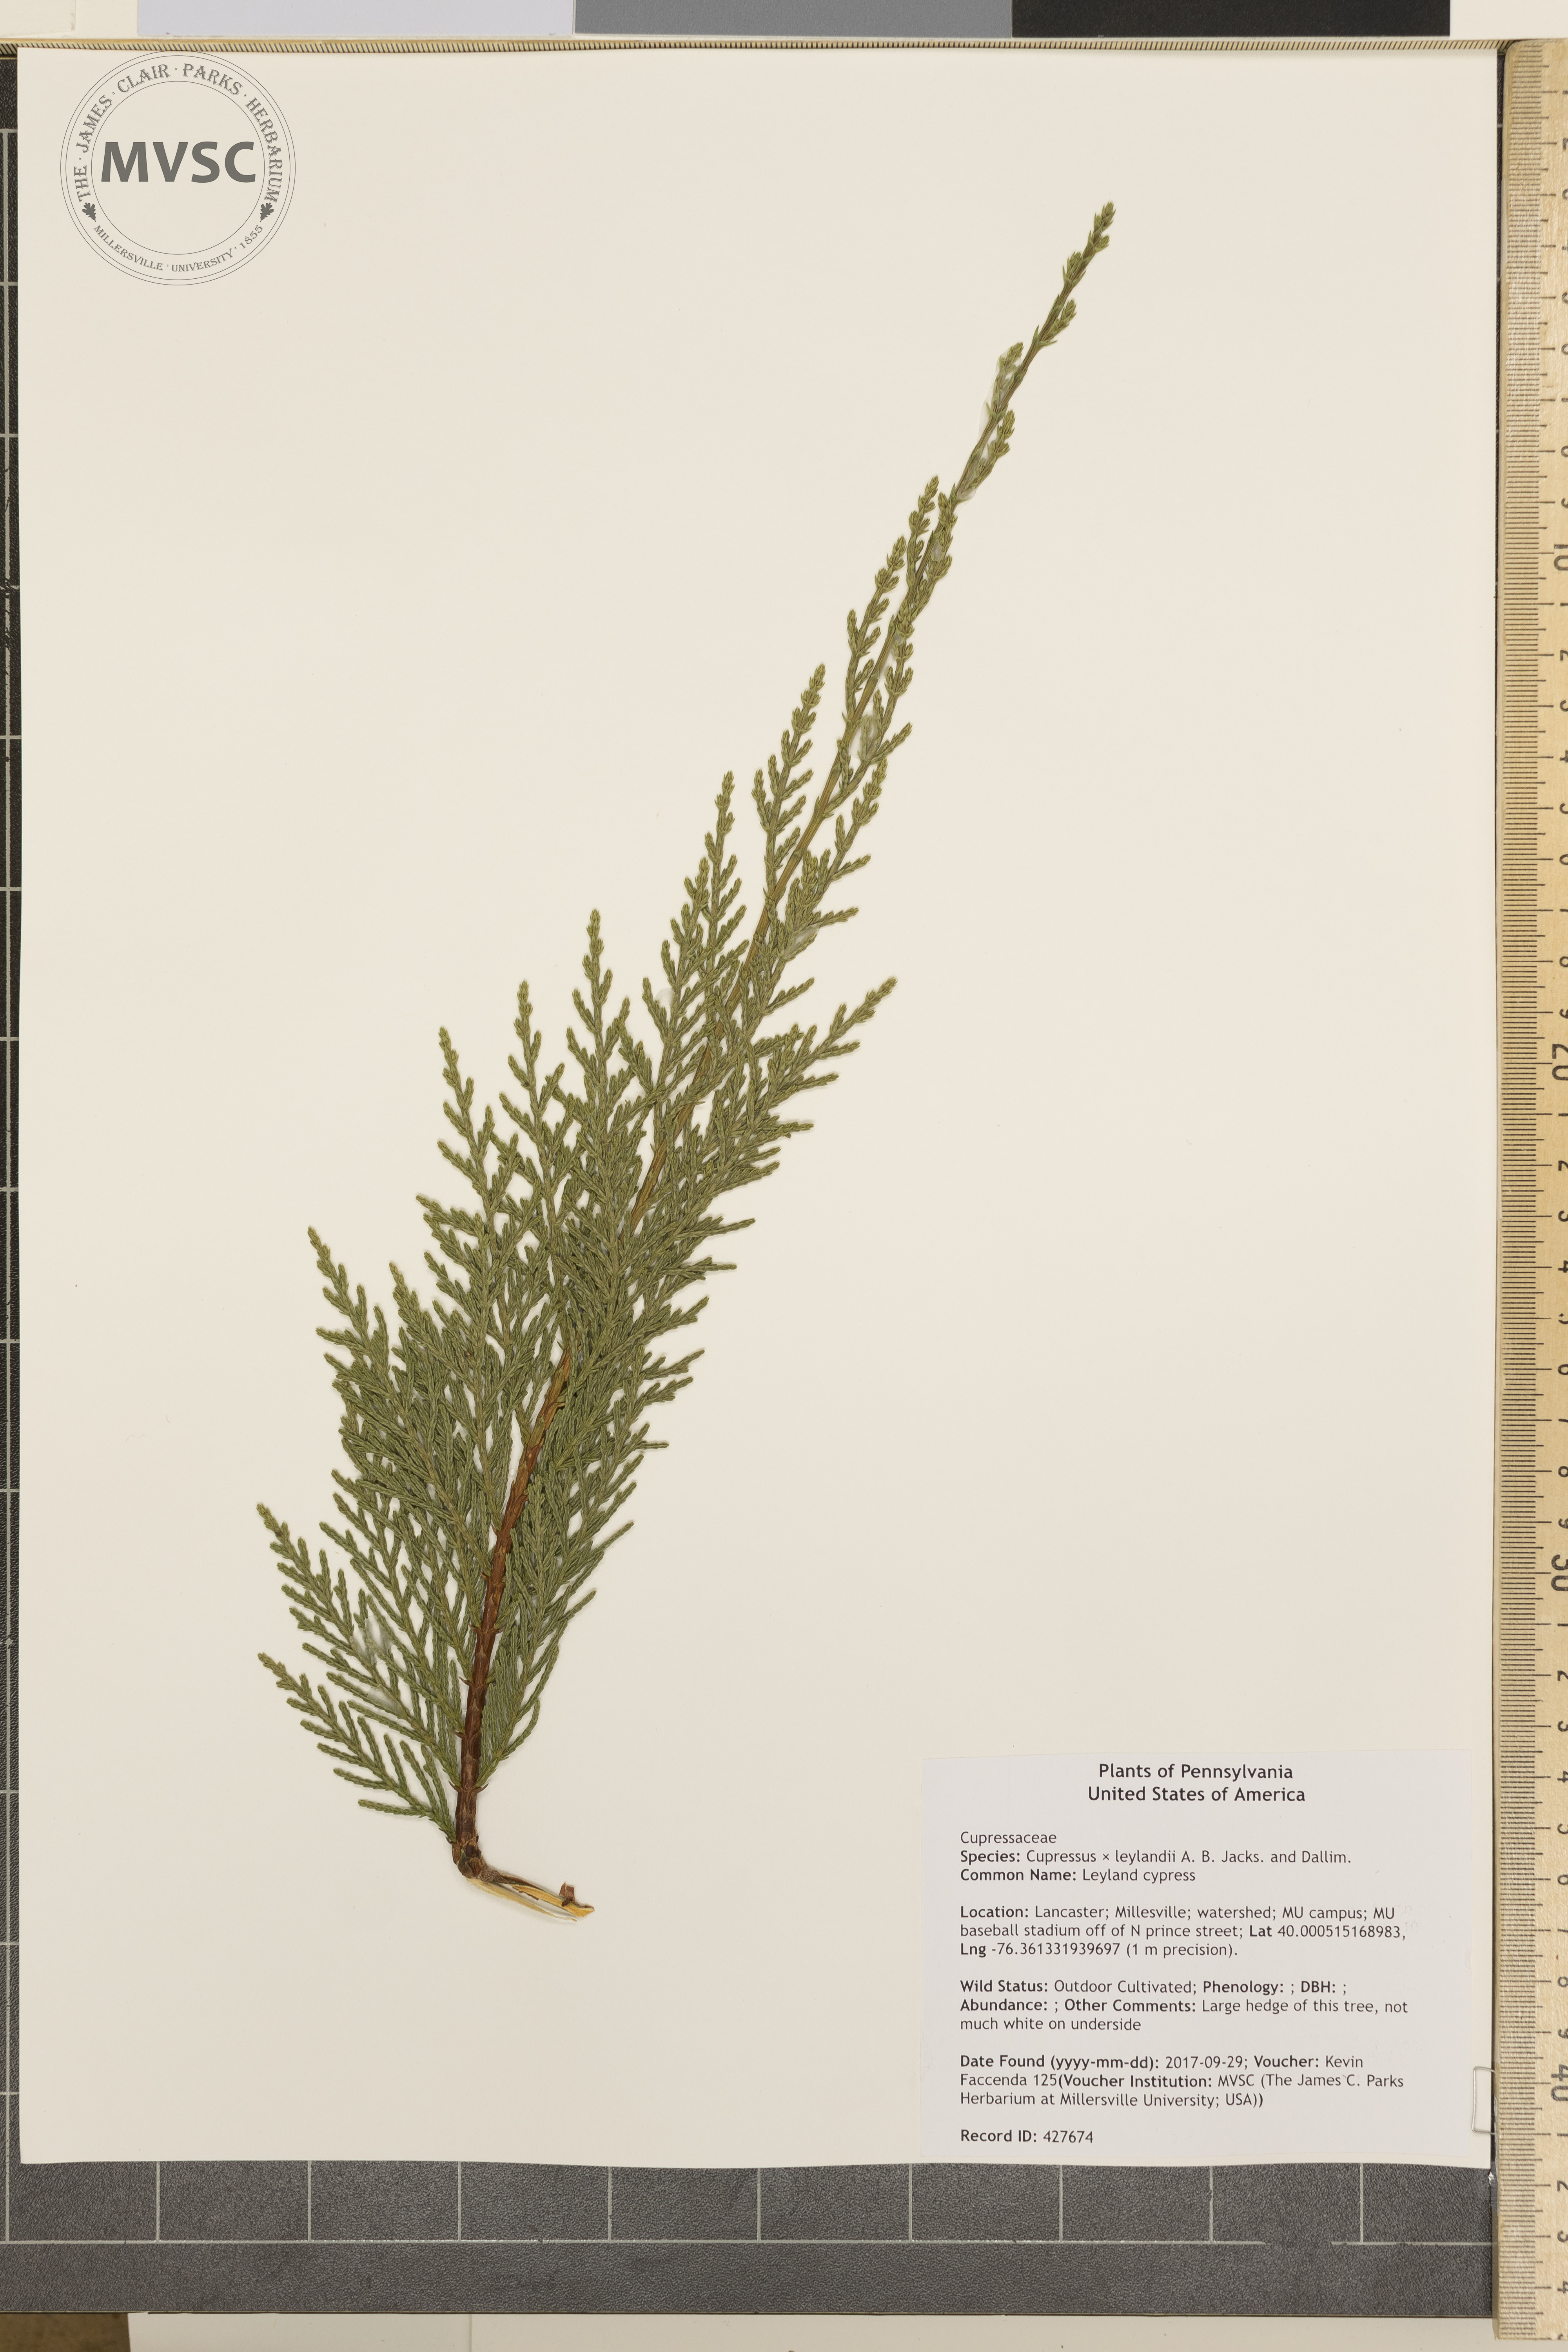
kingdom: Plantae
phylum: Tracheophyta
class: Pinopsida
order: Pinales
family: Cupressaceae
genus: Hesperotropsis
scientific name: Hesperotropsis leylandii
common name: Leyland cypress
